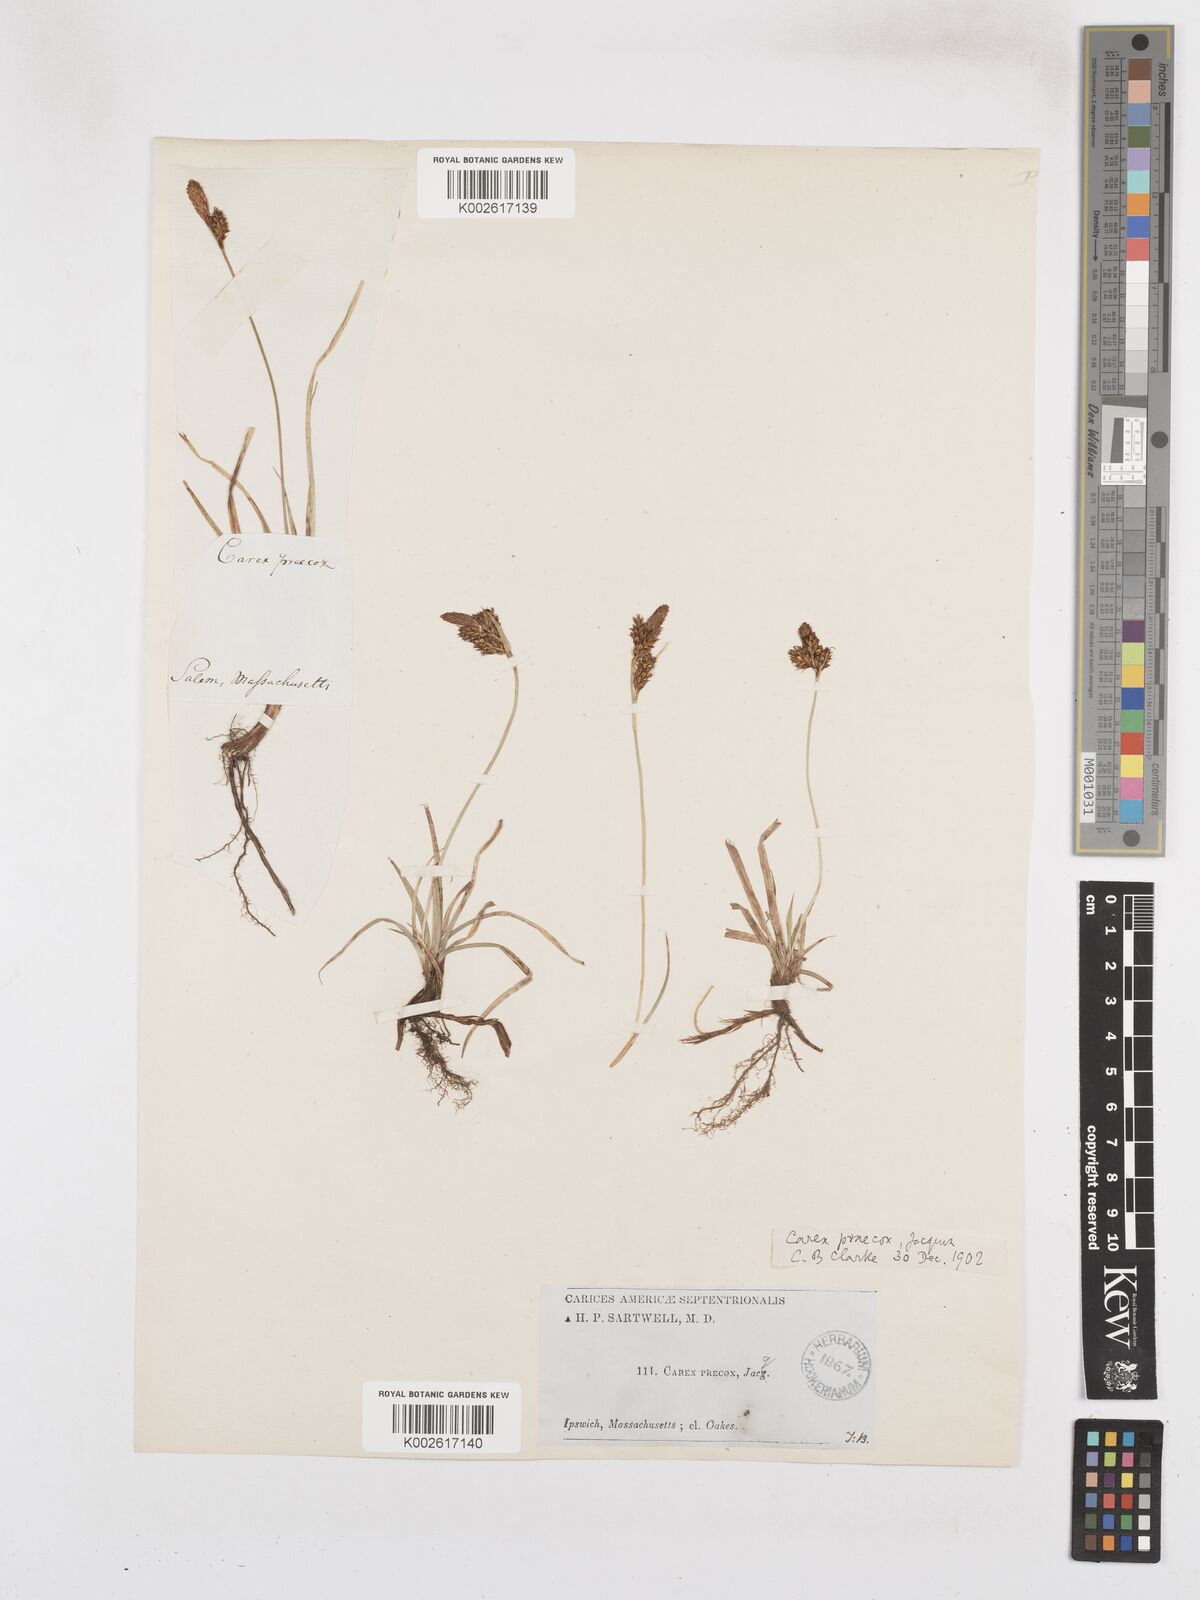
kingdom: Plantae
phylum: Tracheophyta
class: Liliopsida
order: Poales
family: Cyperaceae
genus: Carex
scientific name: Carex caryophyllea
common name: Spring sedge
